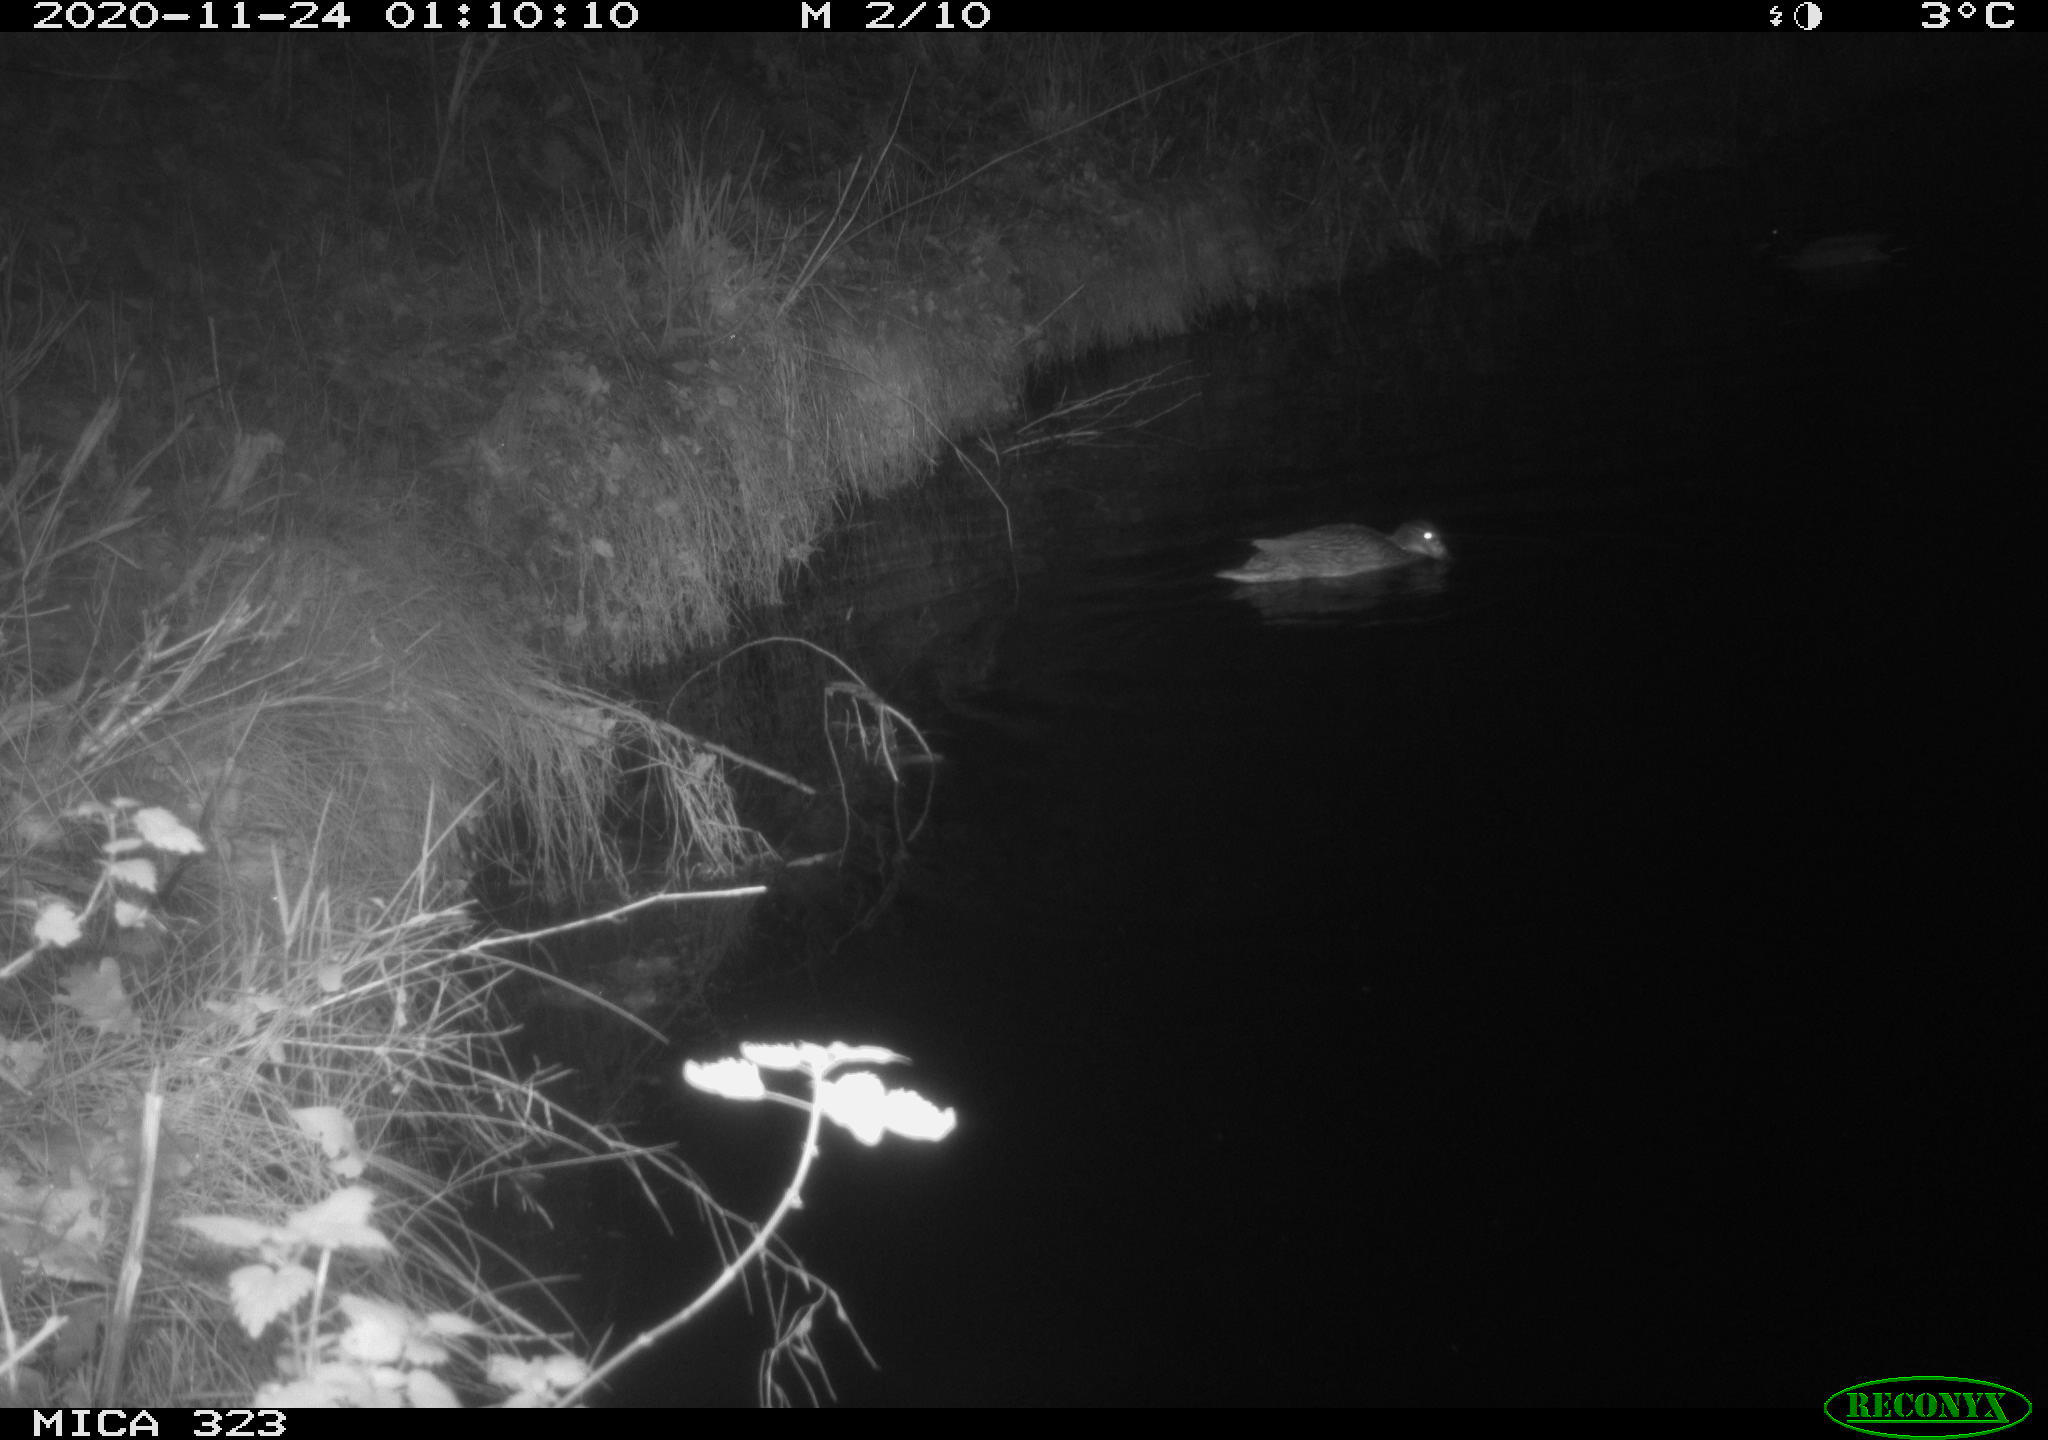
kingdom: Animalia
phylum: Chordata
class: Aves
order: Anseriformes
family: Anatidae
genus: Anas
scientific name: Anas platyrhynchos
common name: Mallard
